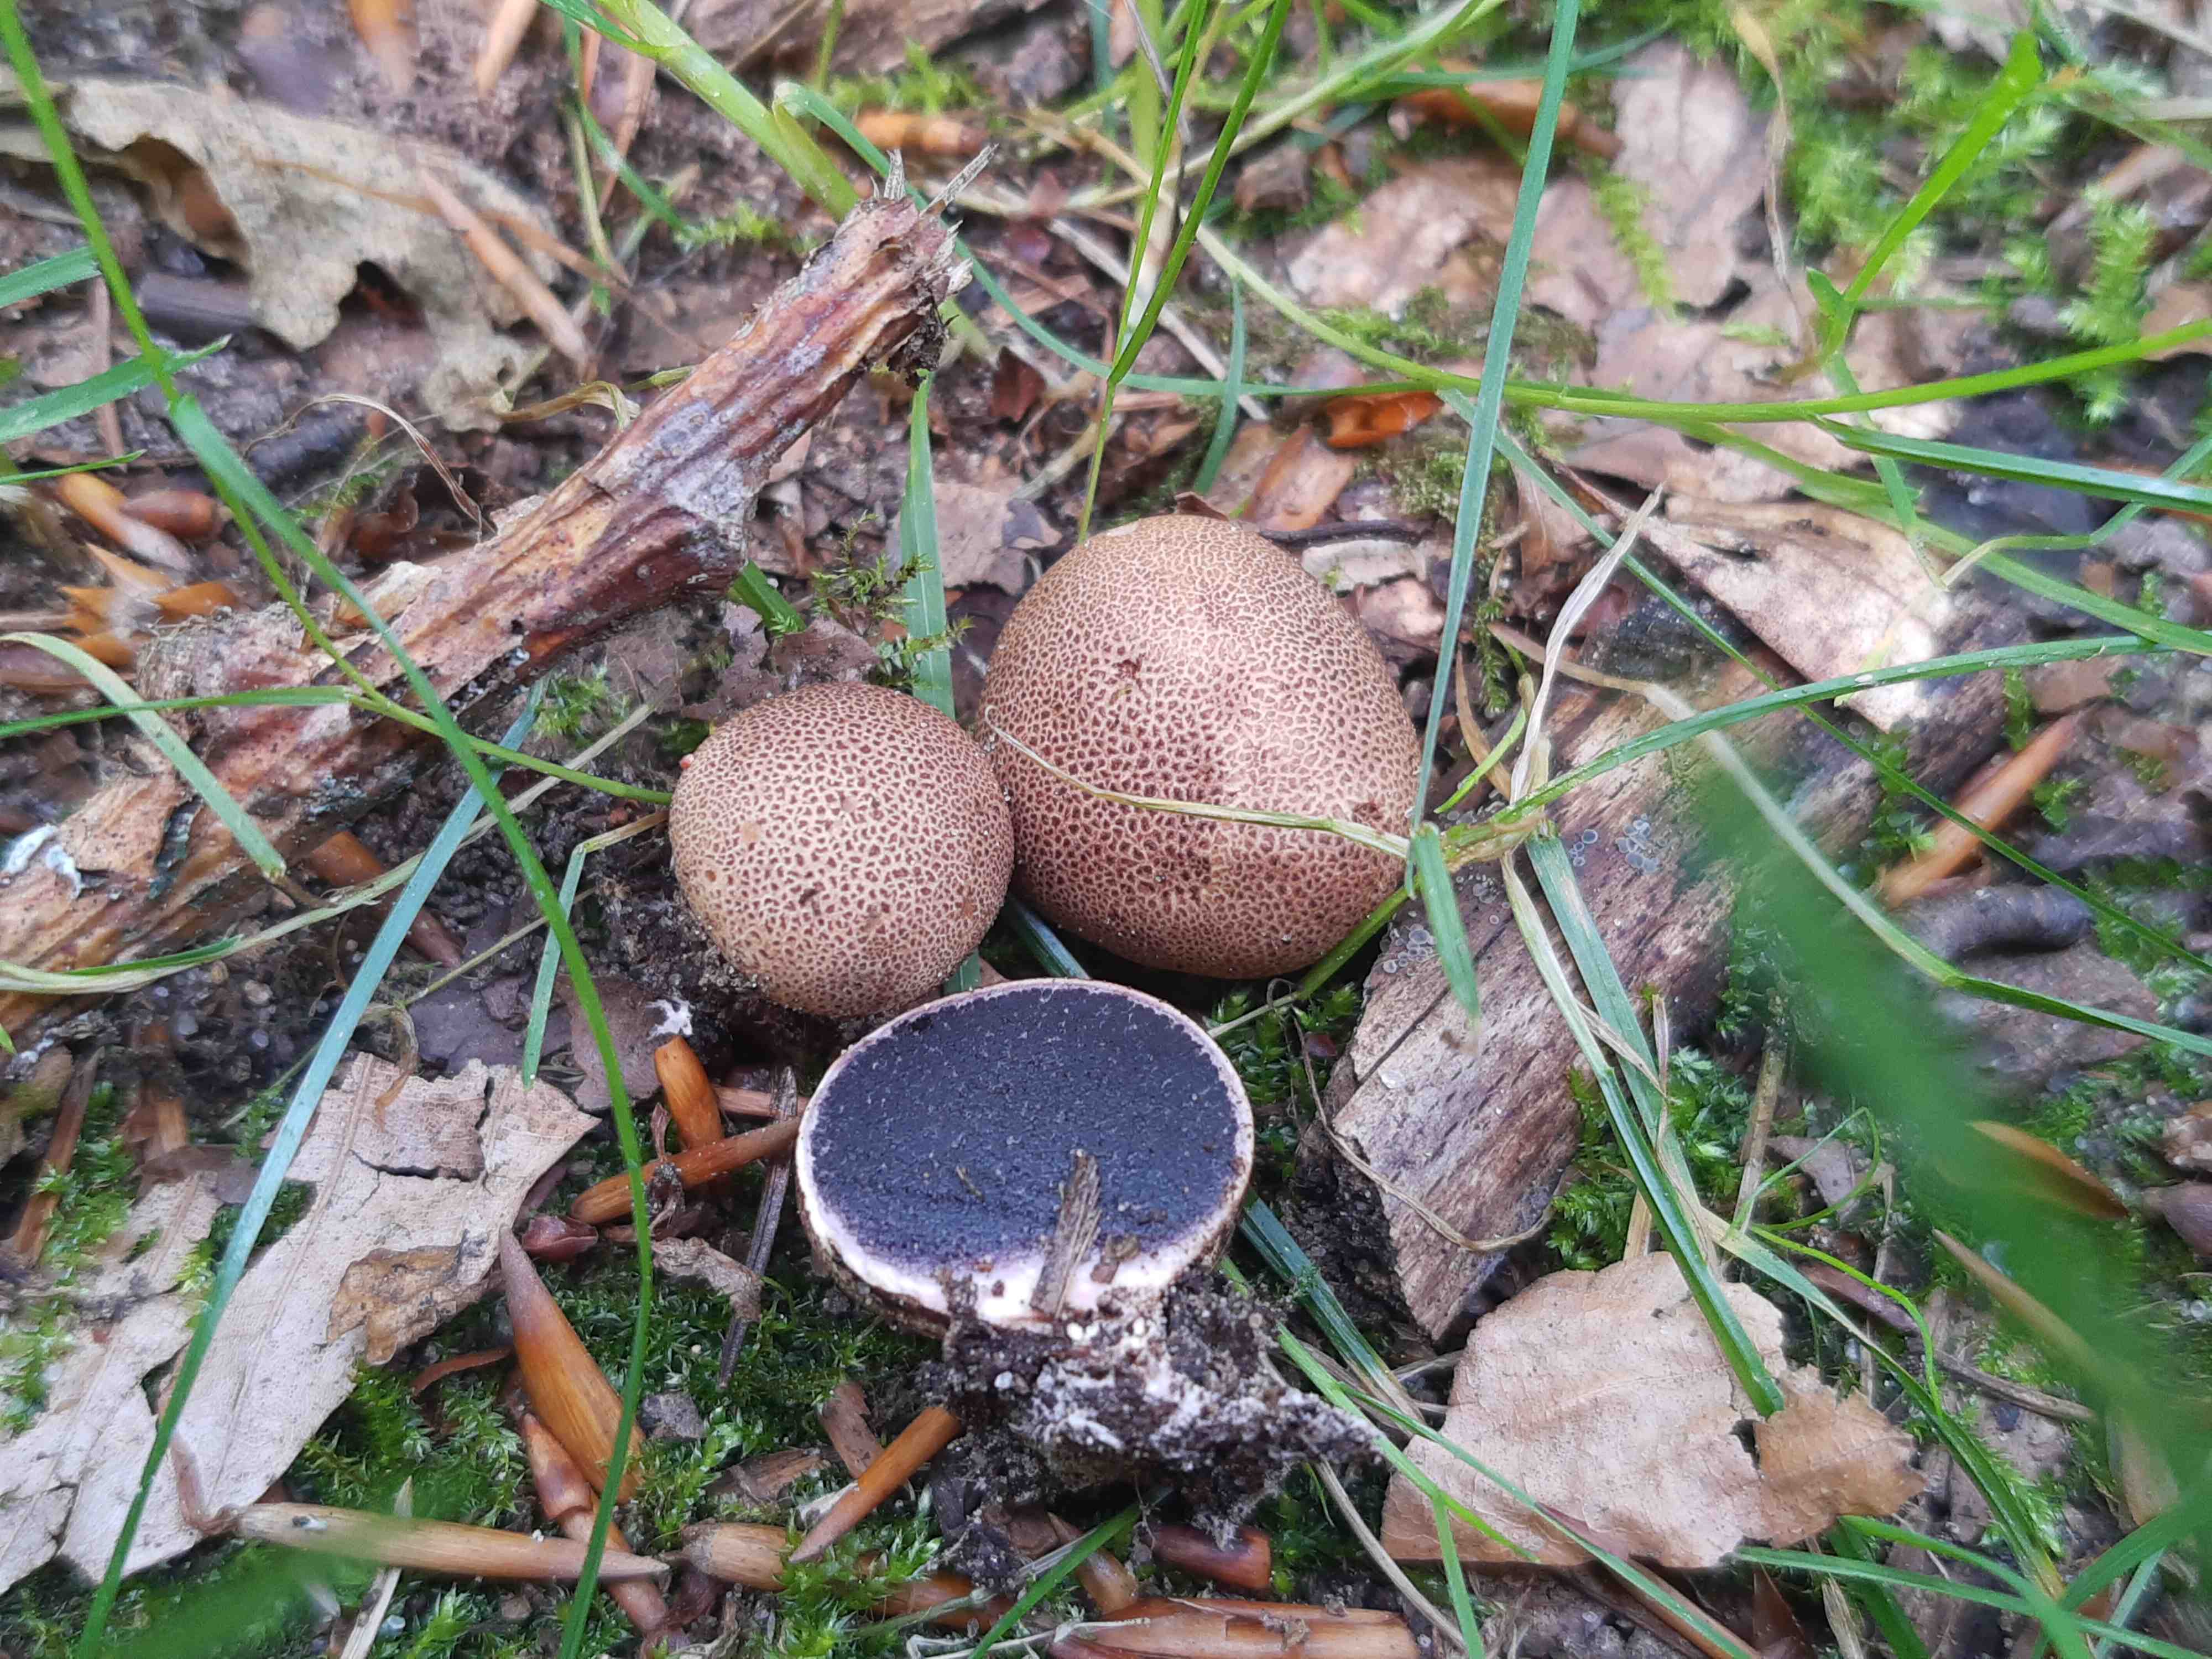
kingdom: Fungi
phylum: Basidiomycota
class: Agaricomycetes
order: Boletales
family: Sclerodermataceae
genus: Scleroderma
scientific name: Scleroderma areolatum
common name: plettet bruskbold
